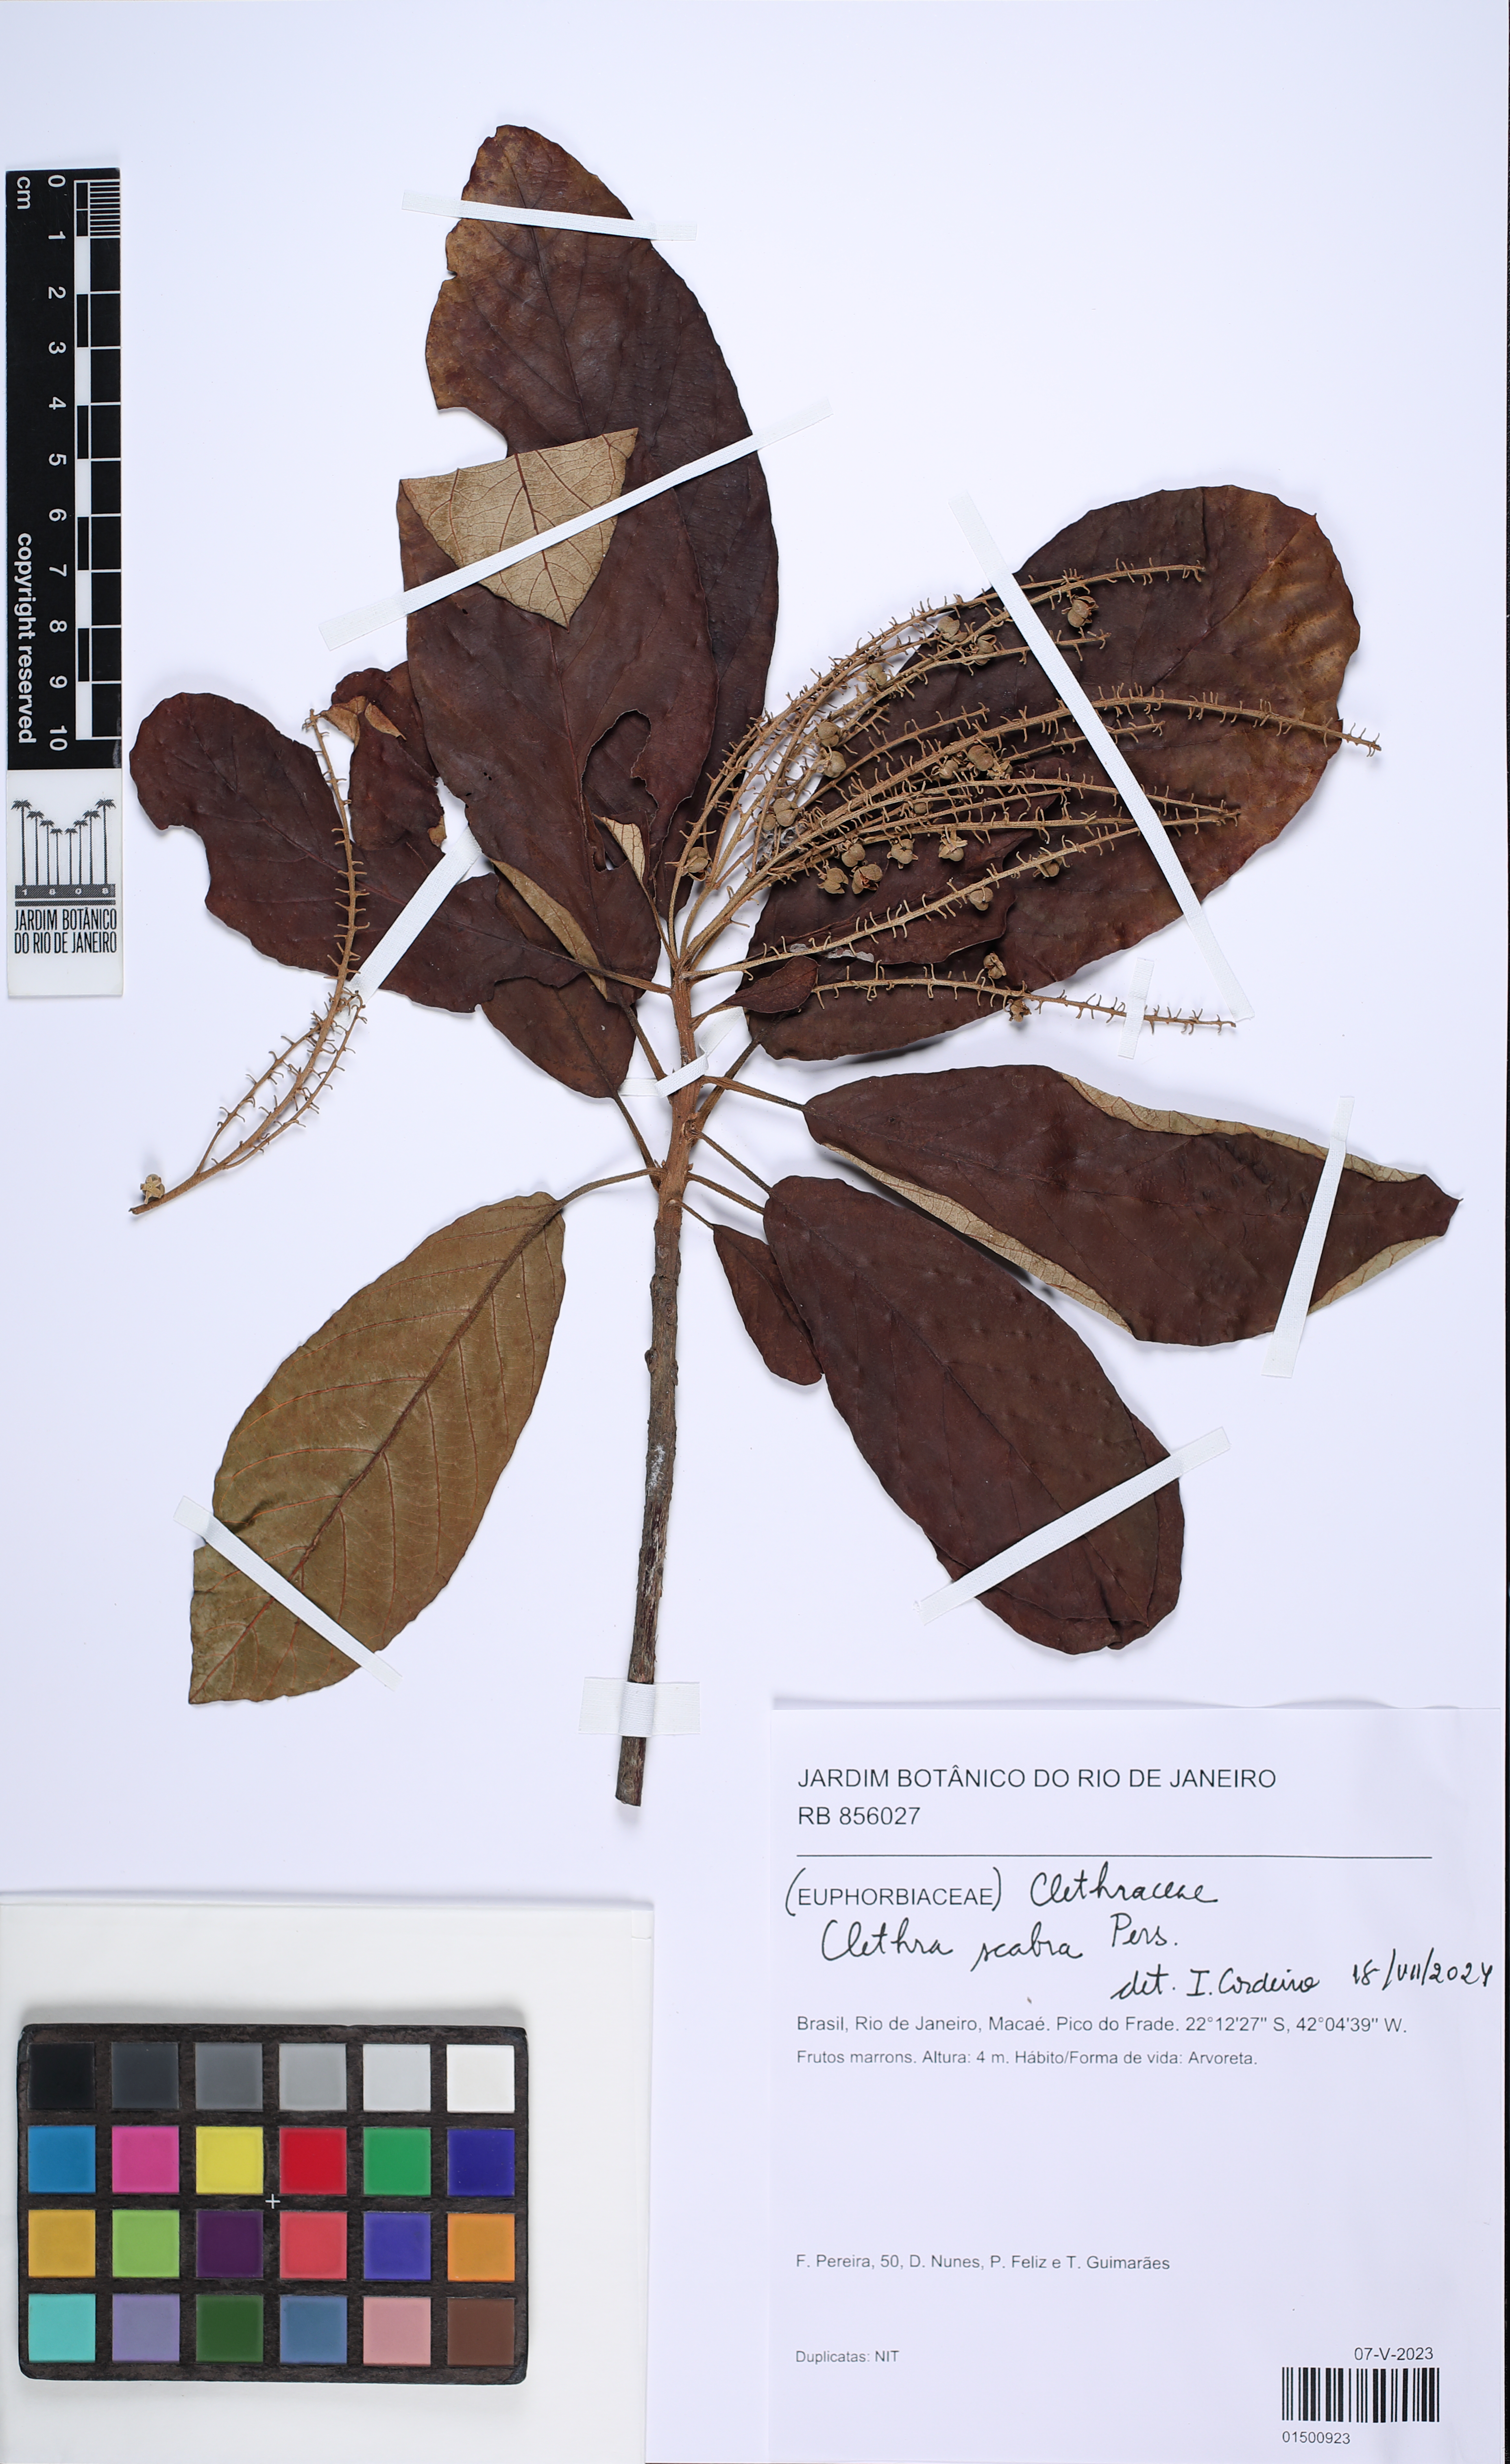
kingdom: Plantae
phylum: Tracheophyta
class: Magnoliopsida
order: Malpighiales
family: Euphorbiaceae
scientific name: Euphorbiaceae
